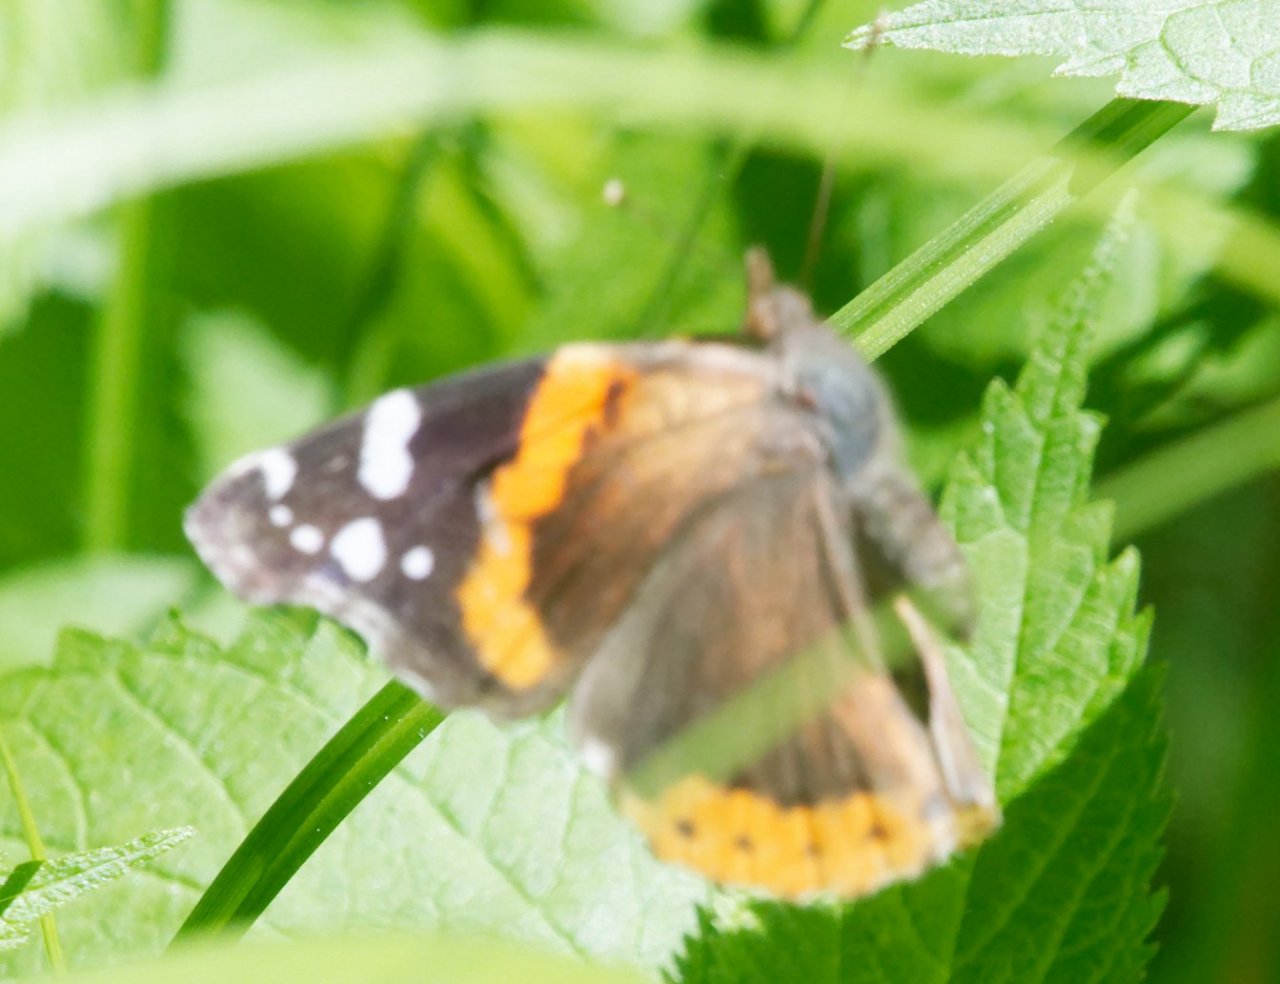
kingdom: Animalia
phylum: Arthropoda
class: Insecta
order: Lepidoptera
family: Nymphalidae
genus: Vanessa
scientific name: Vanessa atalanta
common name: Red Admiral
